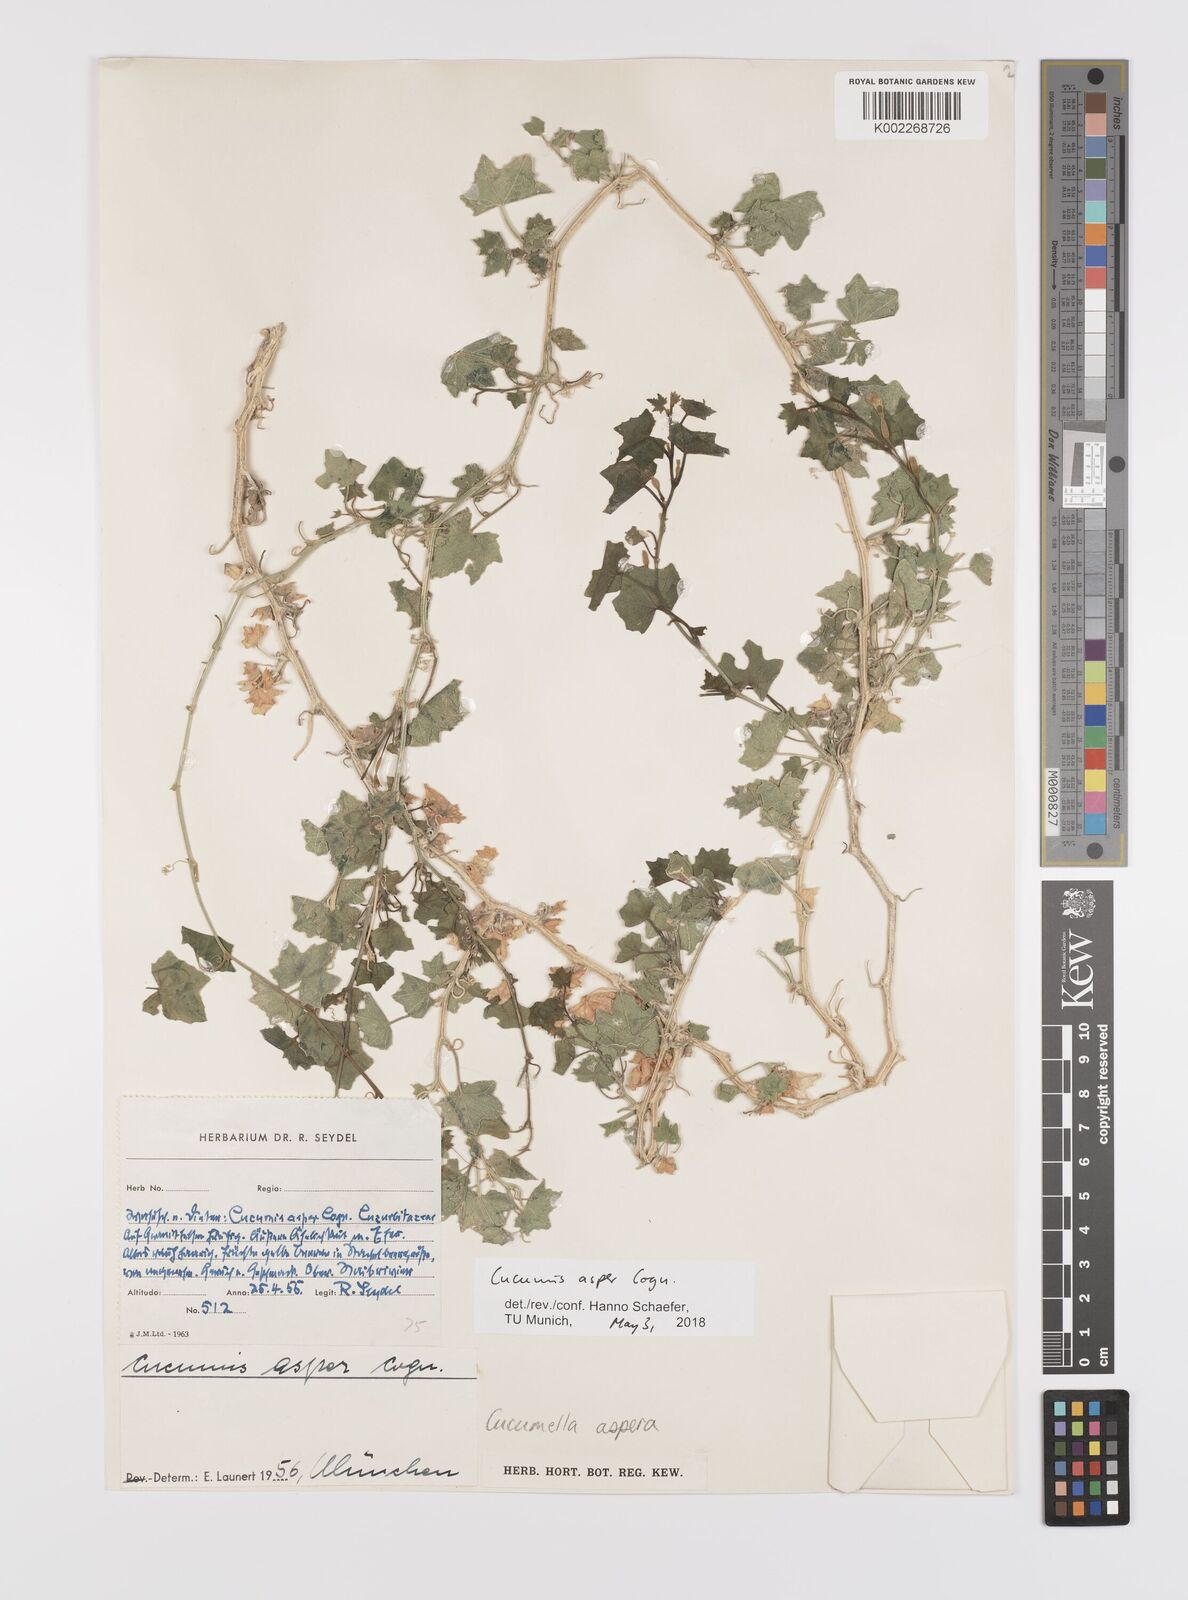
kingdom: Plantae
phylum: Tracheophyta
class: Magnoliopsida
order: Cucurbitales
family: Cucurbitaceae
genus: Cucumis
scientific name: Cucumis asper
